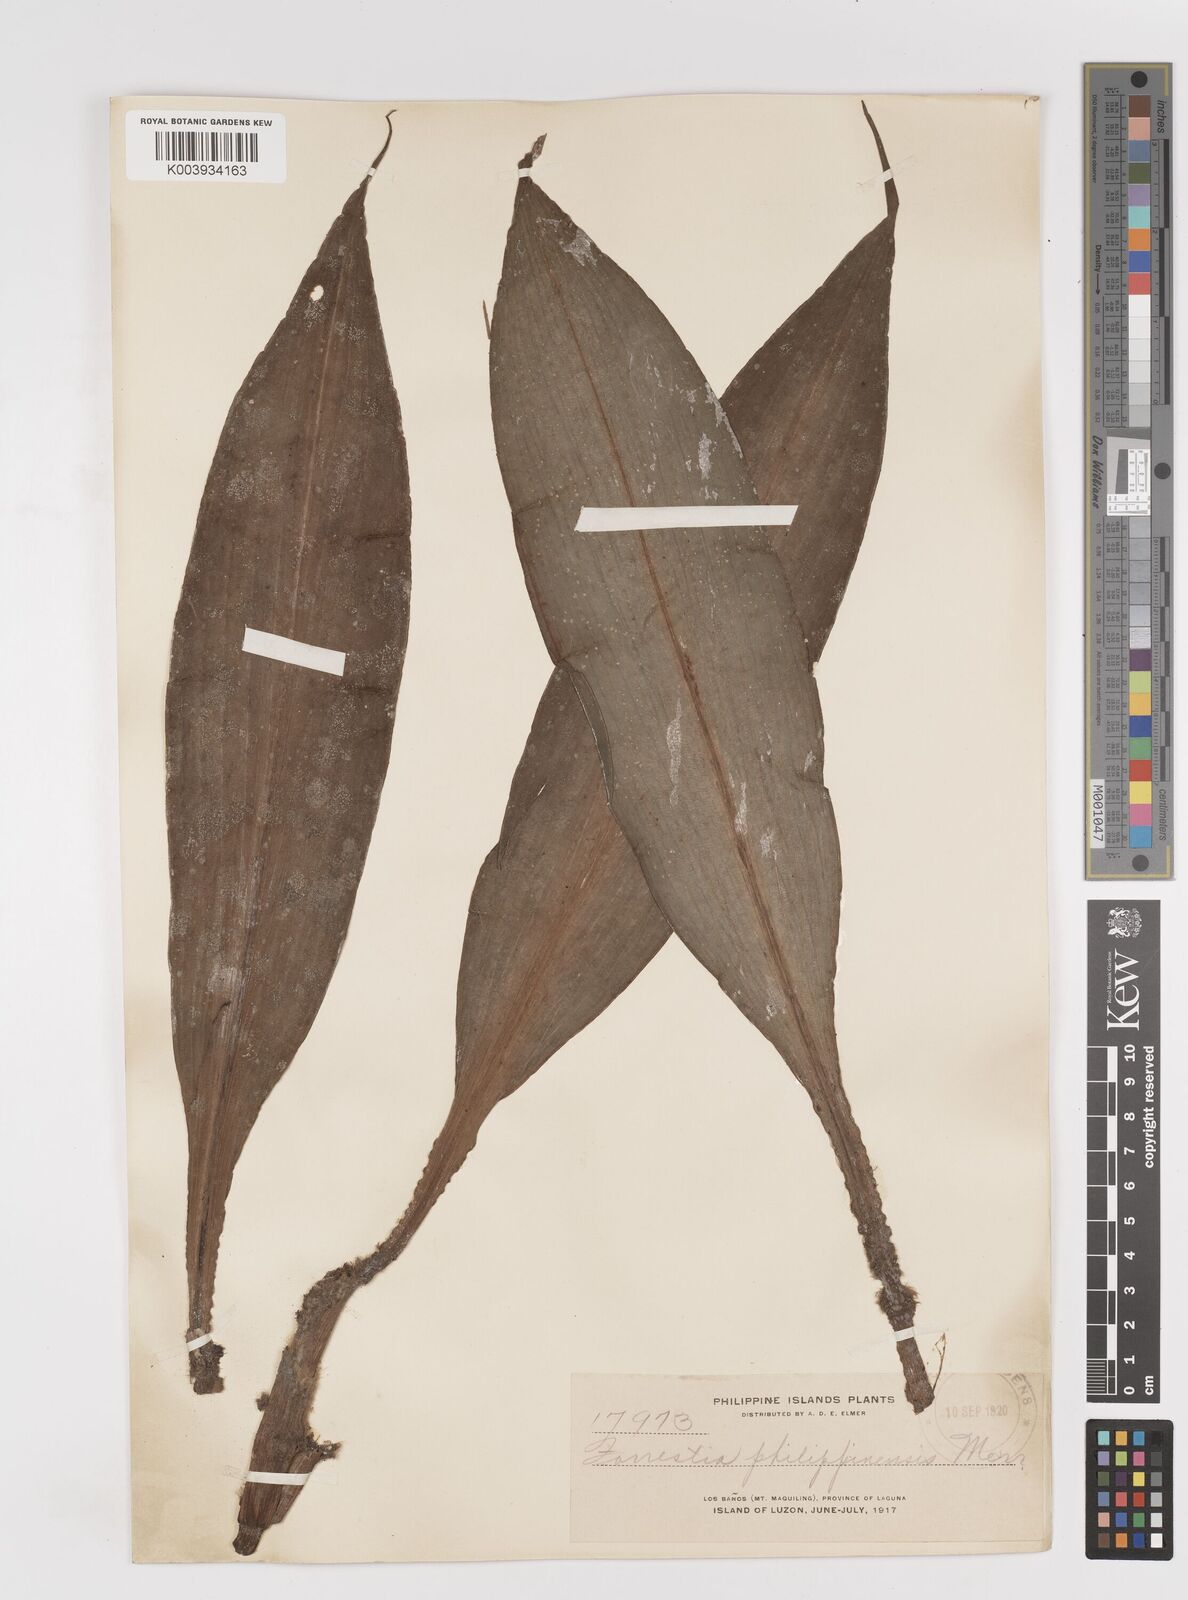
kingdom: Plantae
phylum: Tracheophyta
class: Liliopsida
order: Commelinales
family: Commelinaceae
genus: Amischotolype
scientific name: Amischotolype
